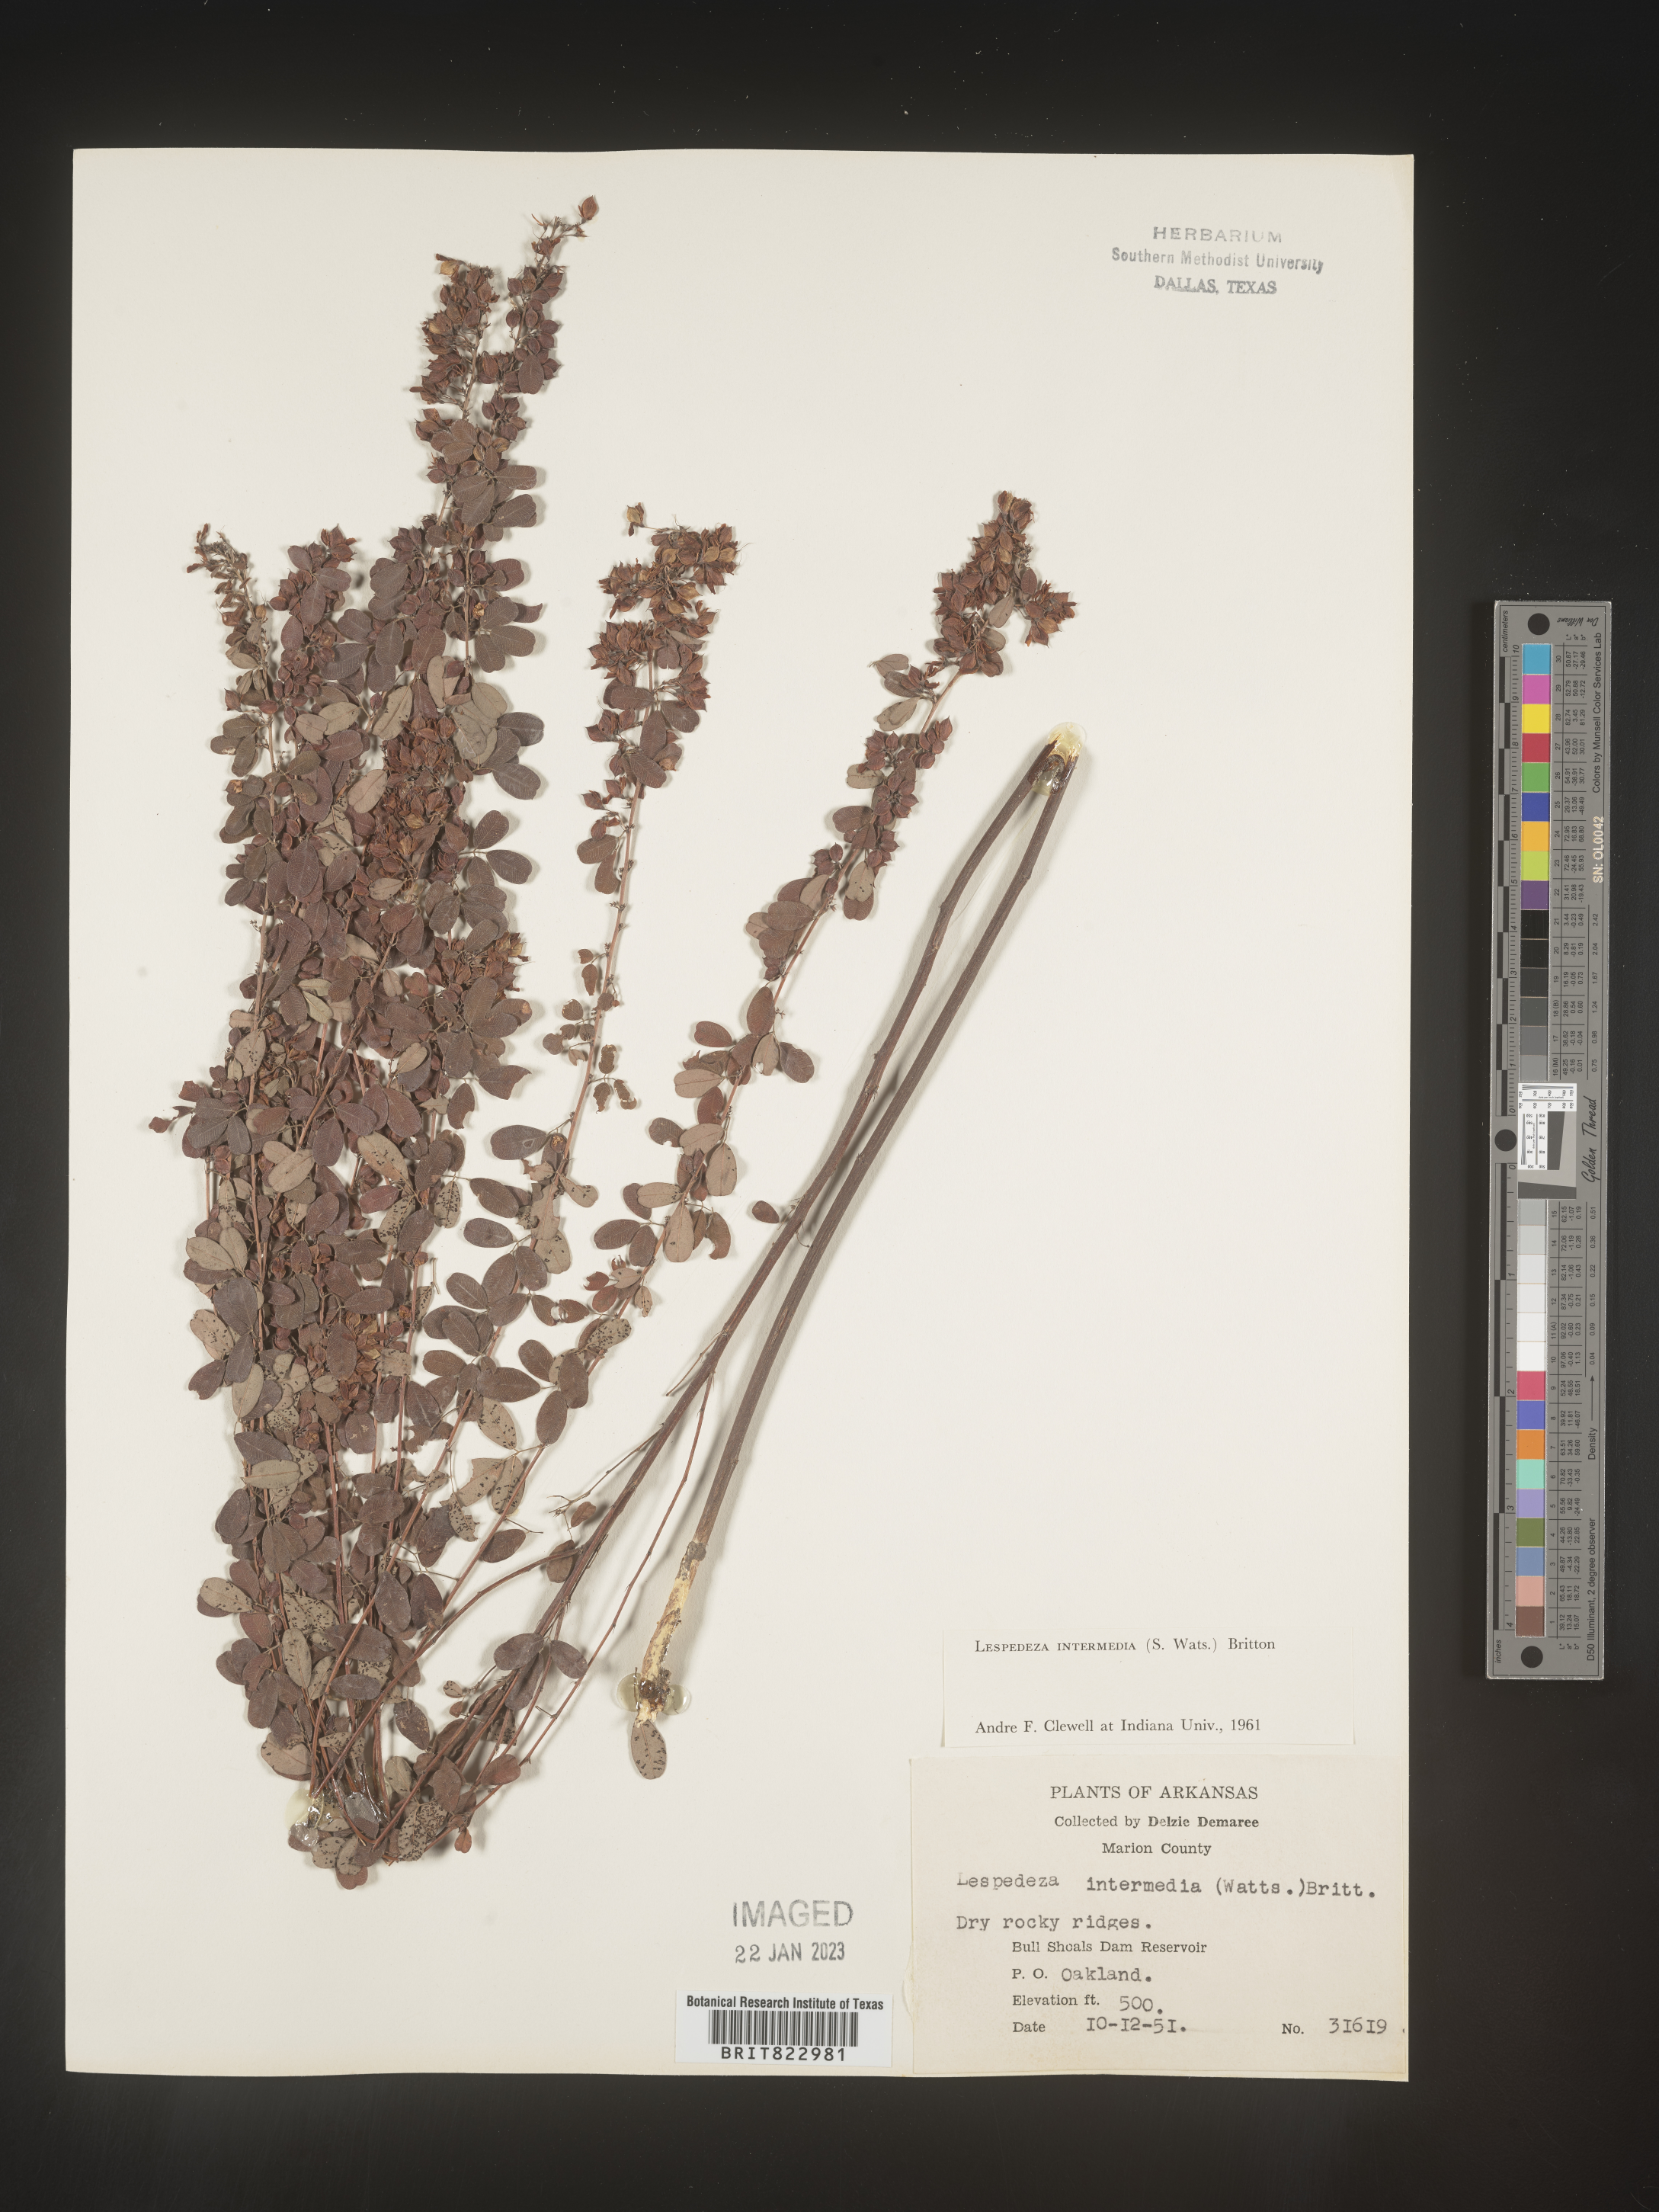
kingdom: Plantae
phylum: Tracheophyta
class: Magnoliopsida
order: Fabales
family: Fabaceae
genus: Lespedeza
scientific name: Lespedeza
